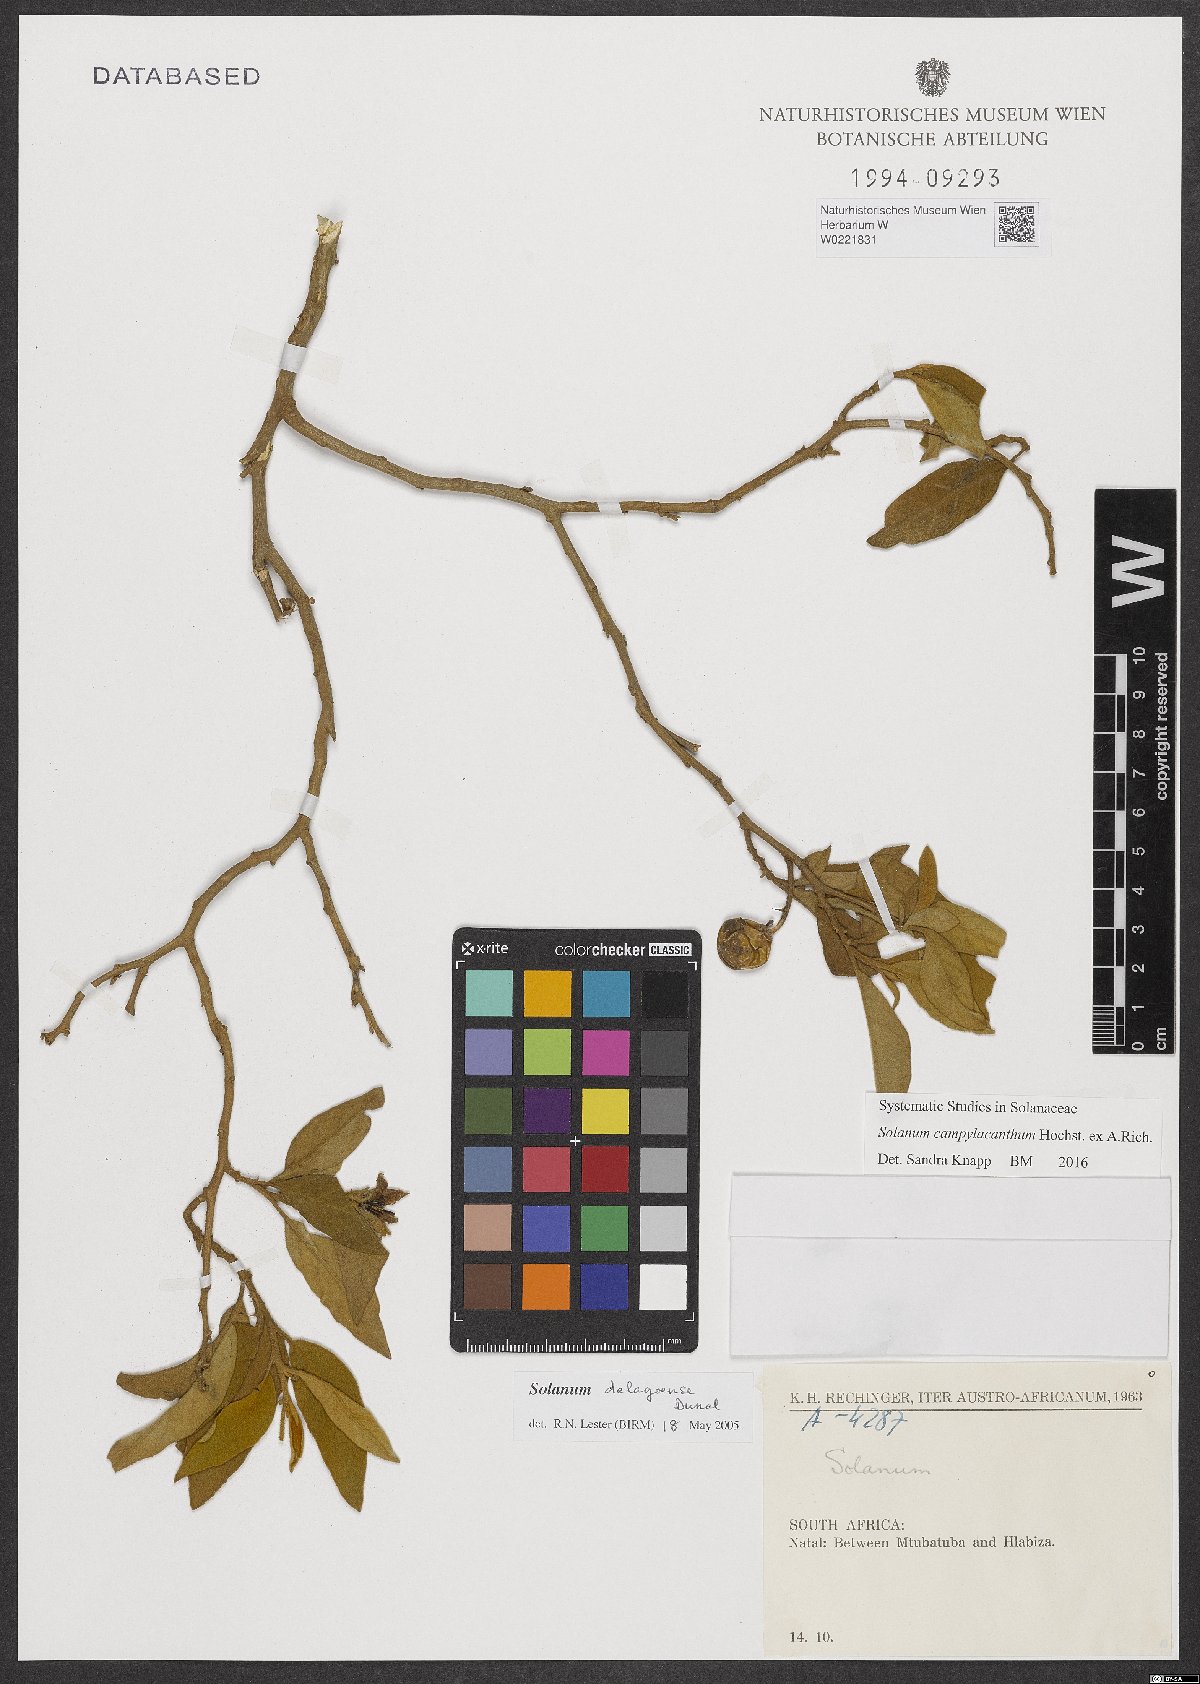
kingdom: Plantae
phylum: Tracheophyta
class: Magnoliopsida
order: Solanales
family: Solanaceae
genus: Solanum
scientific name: Solanum campylacanthum
